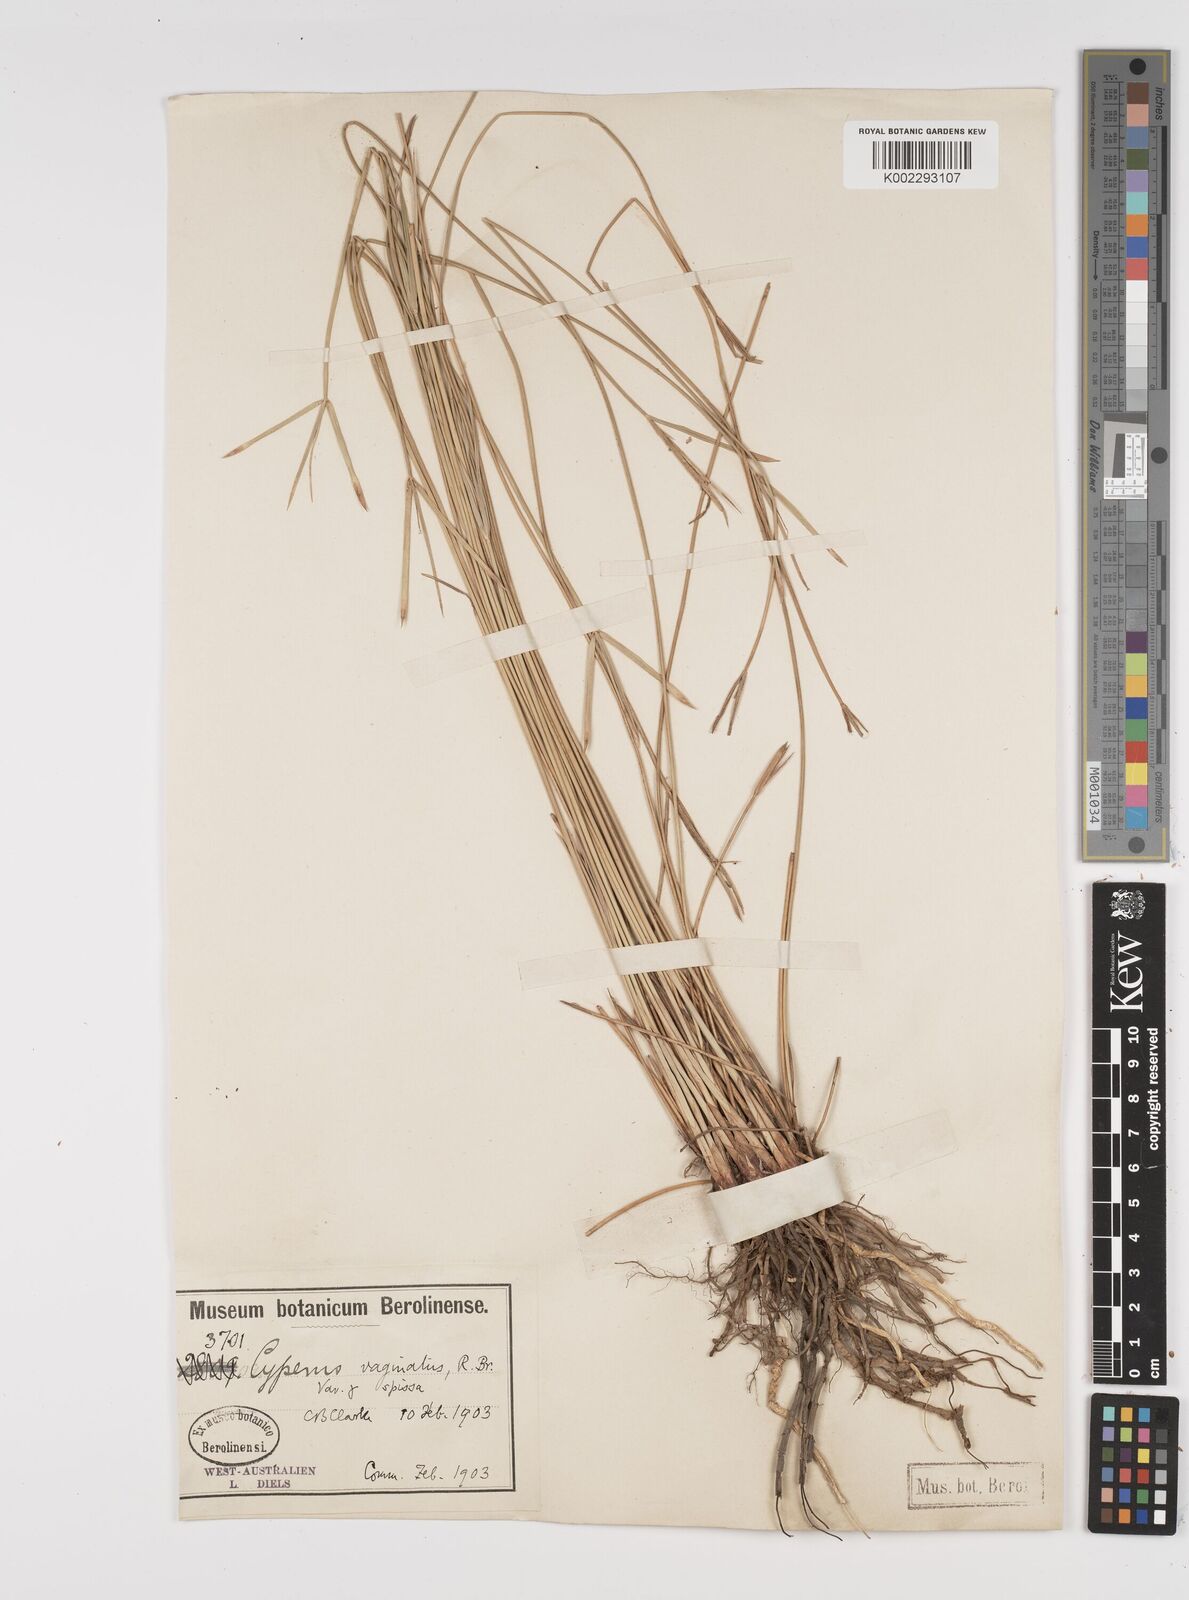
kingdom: Plantae
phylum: Tracheophyta
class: Liliopsida
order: Poales
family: Cyperaceae
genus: Cyperus
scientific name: Cyperus vaginatus
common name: Stiff-leaved flat-sedge
